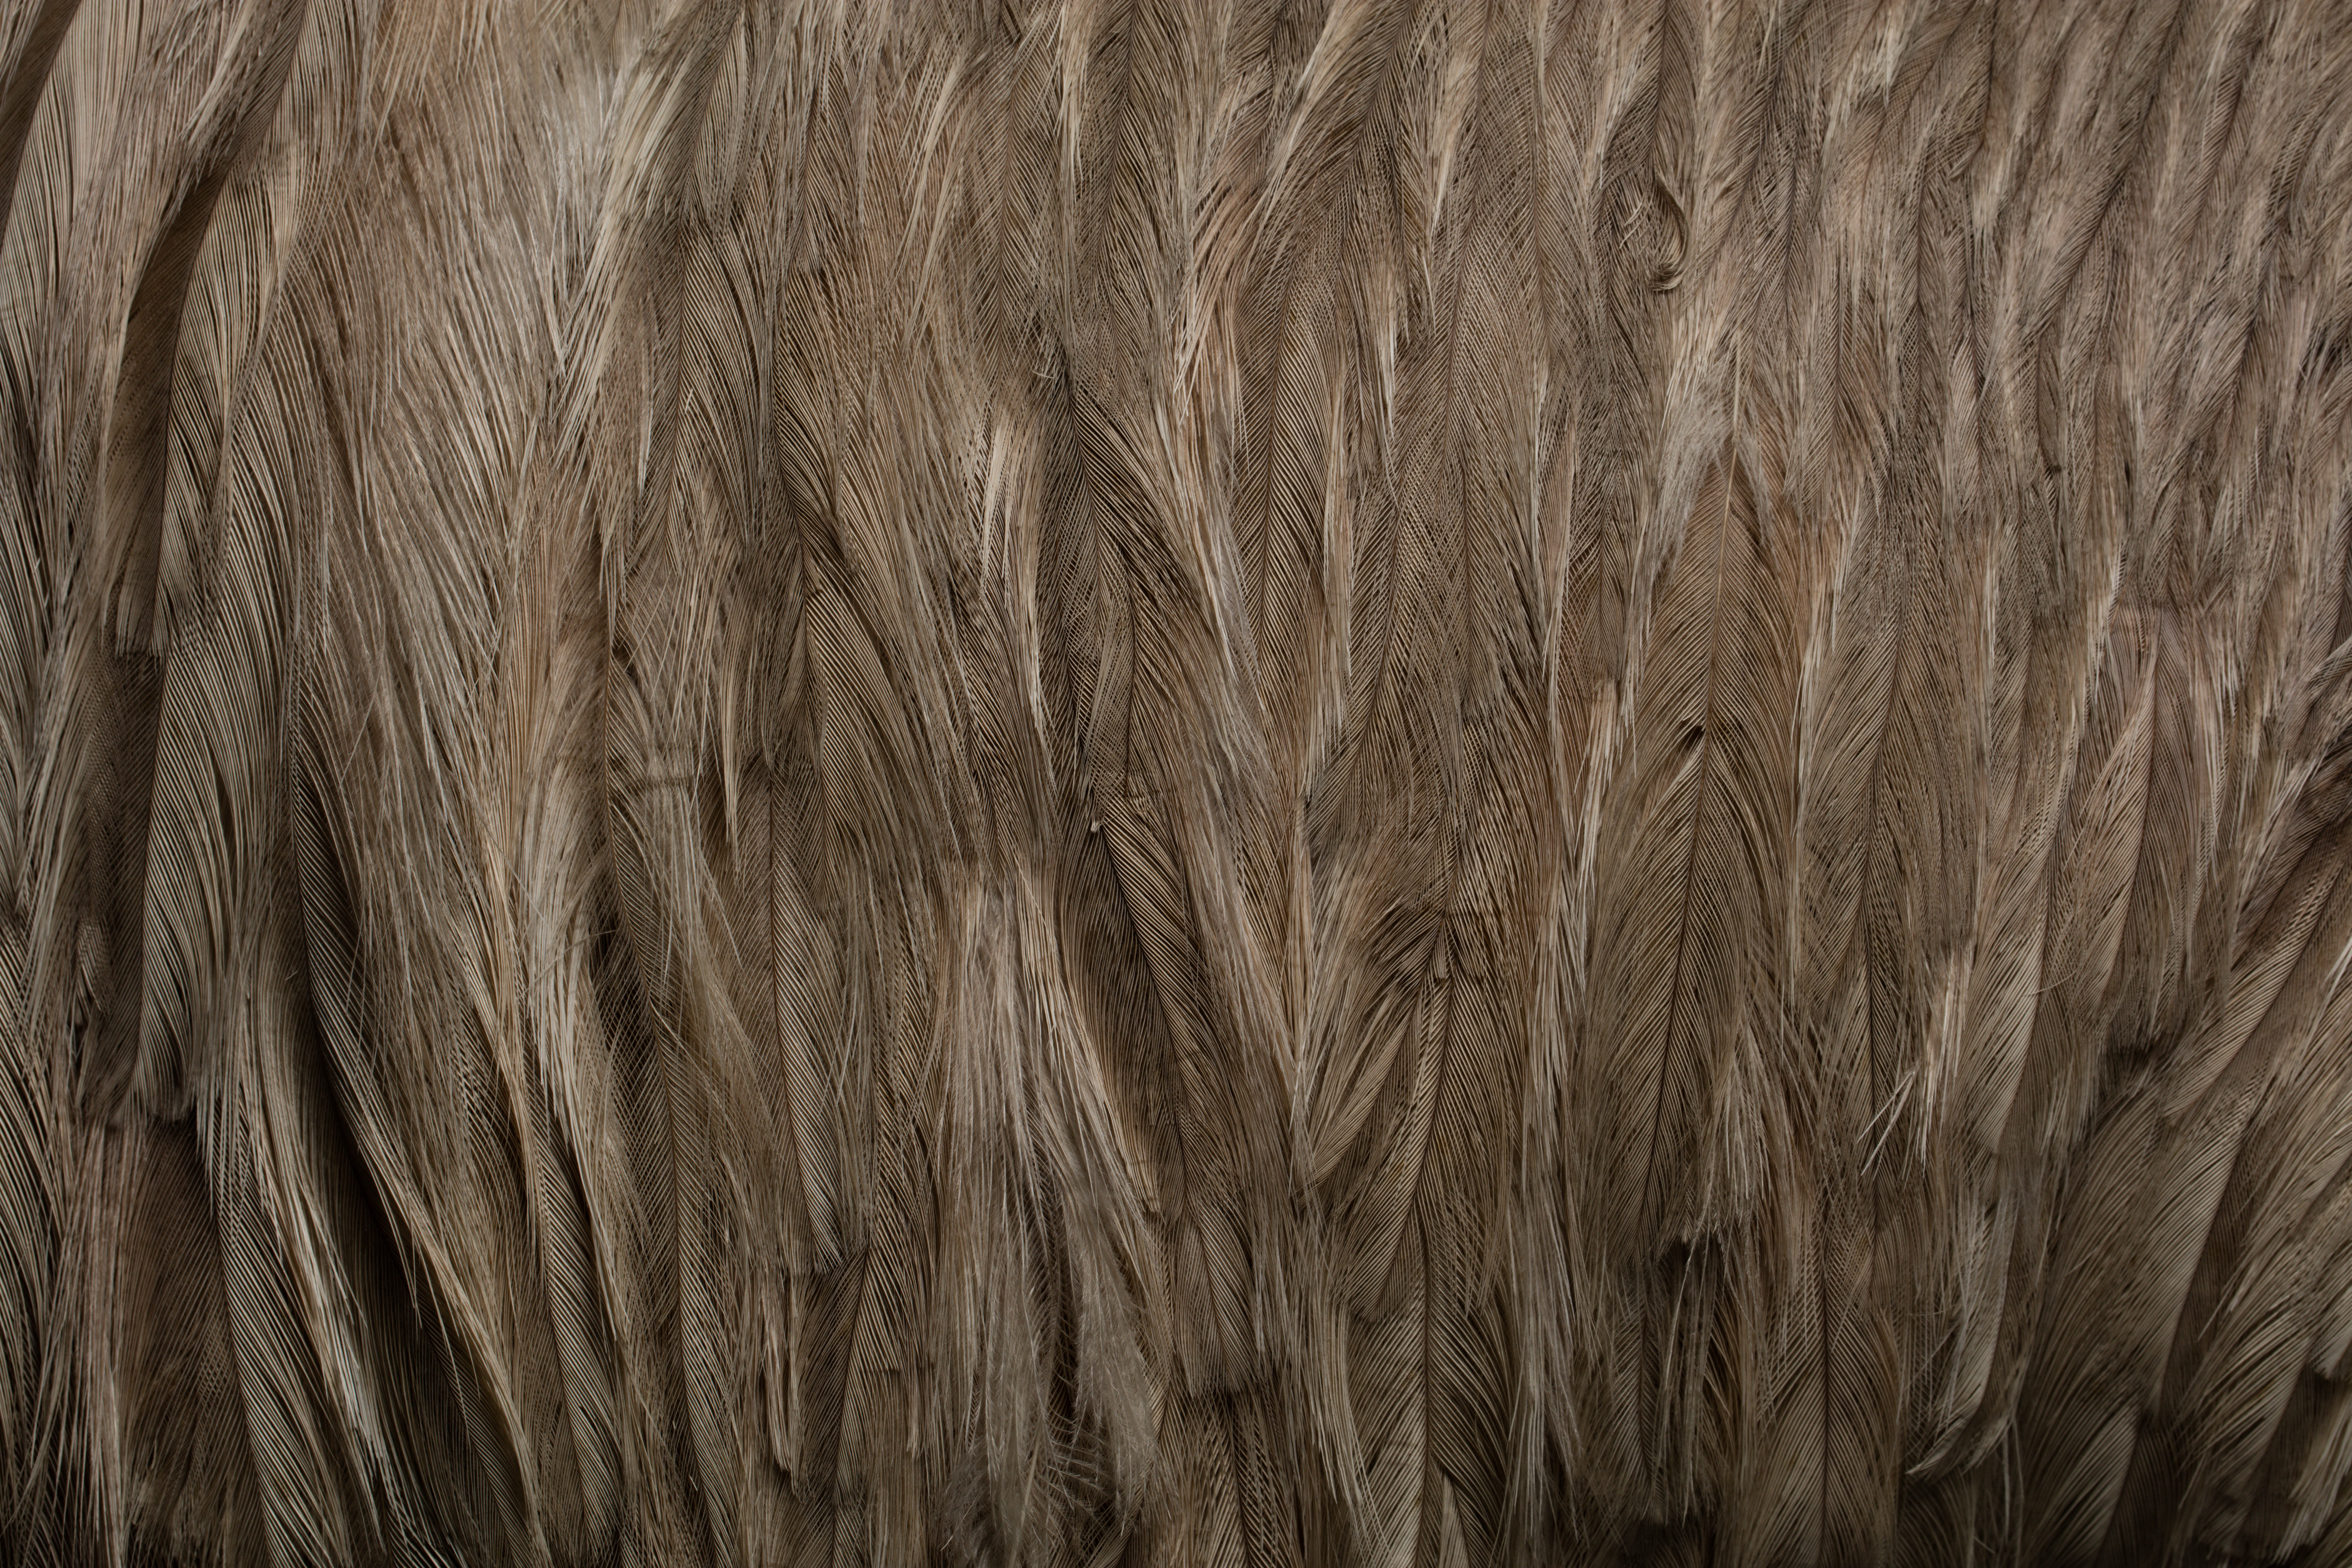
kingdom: Animalia
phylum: Chordata
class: Aves
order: Rheiformes
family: Rheidae
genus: Rhea
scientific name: Rhea americana
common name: Greater rhea
